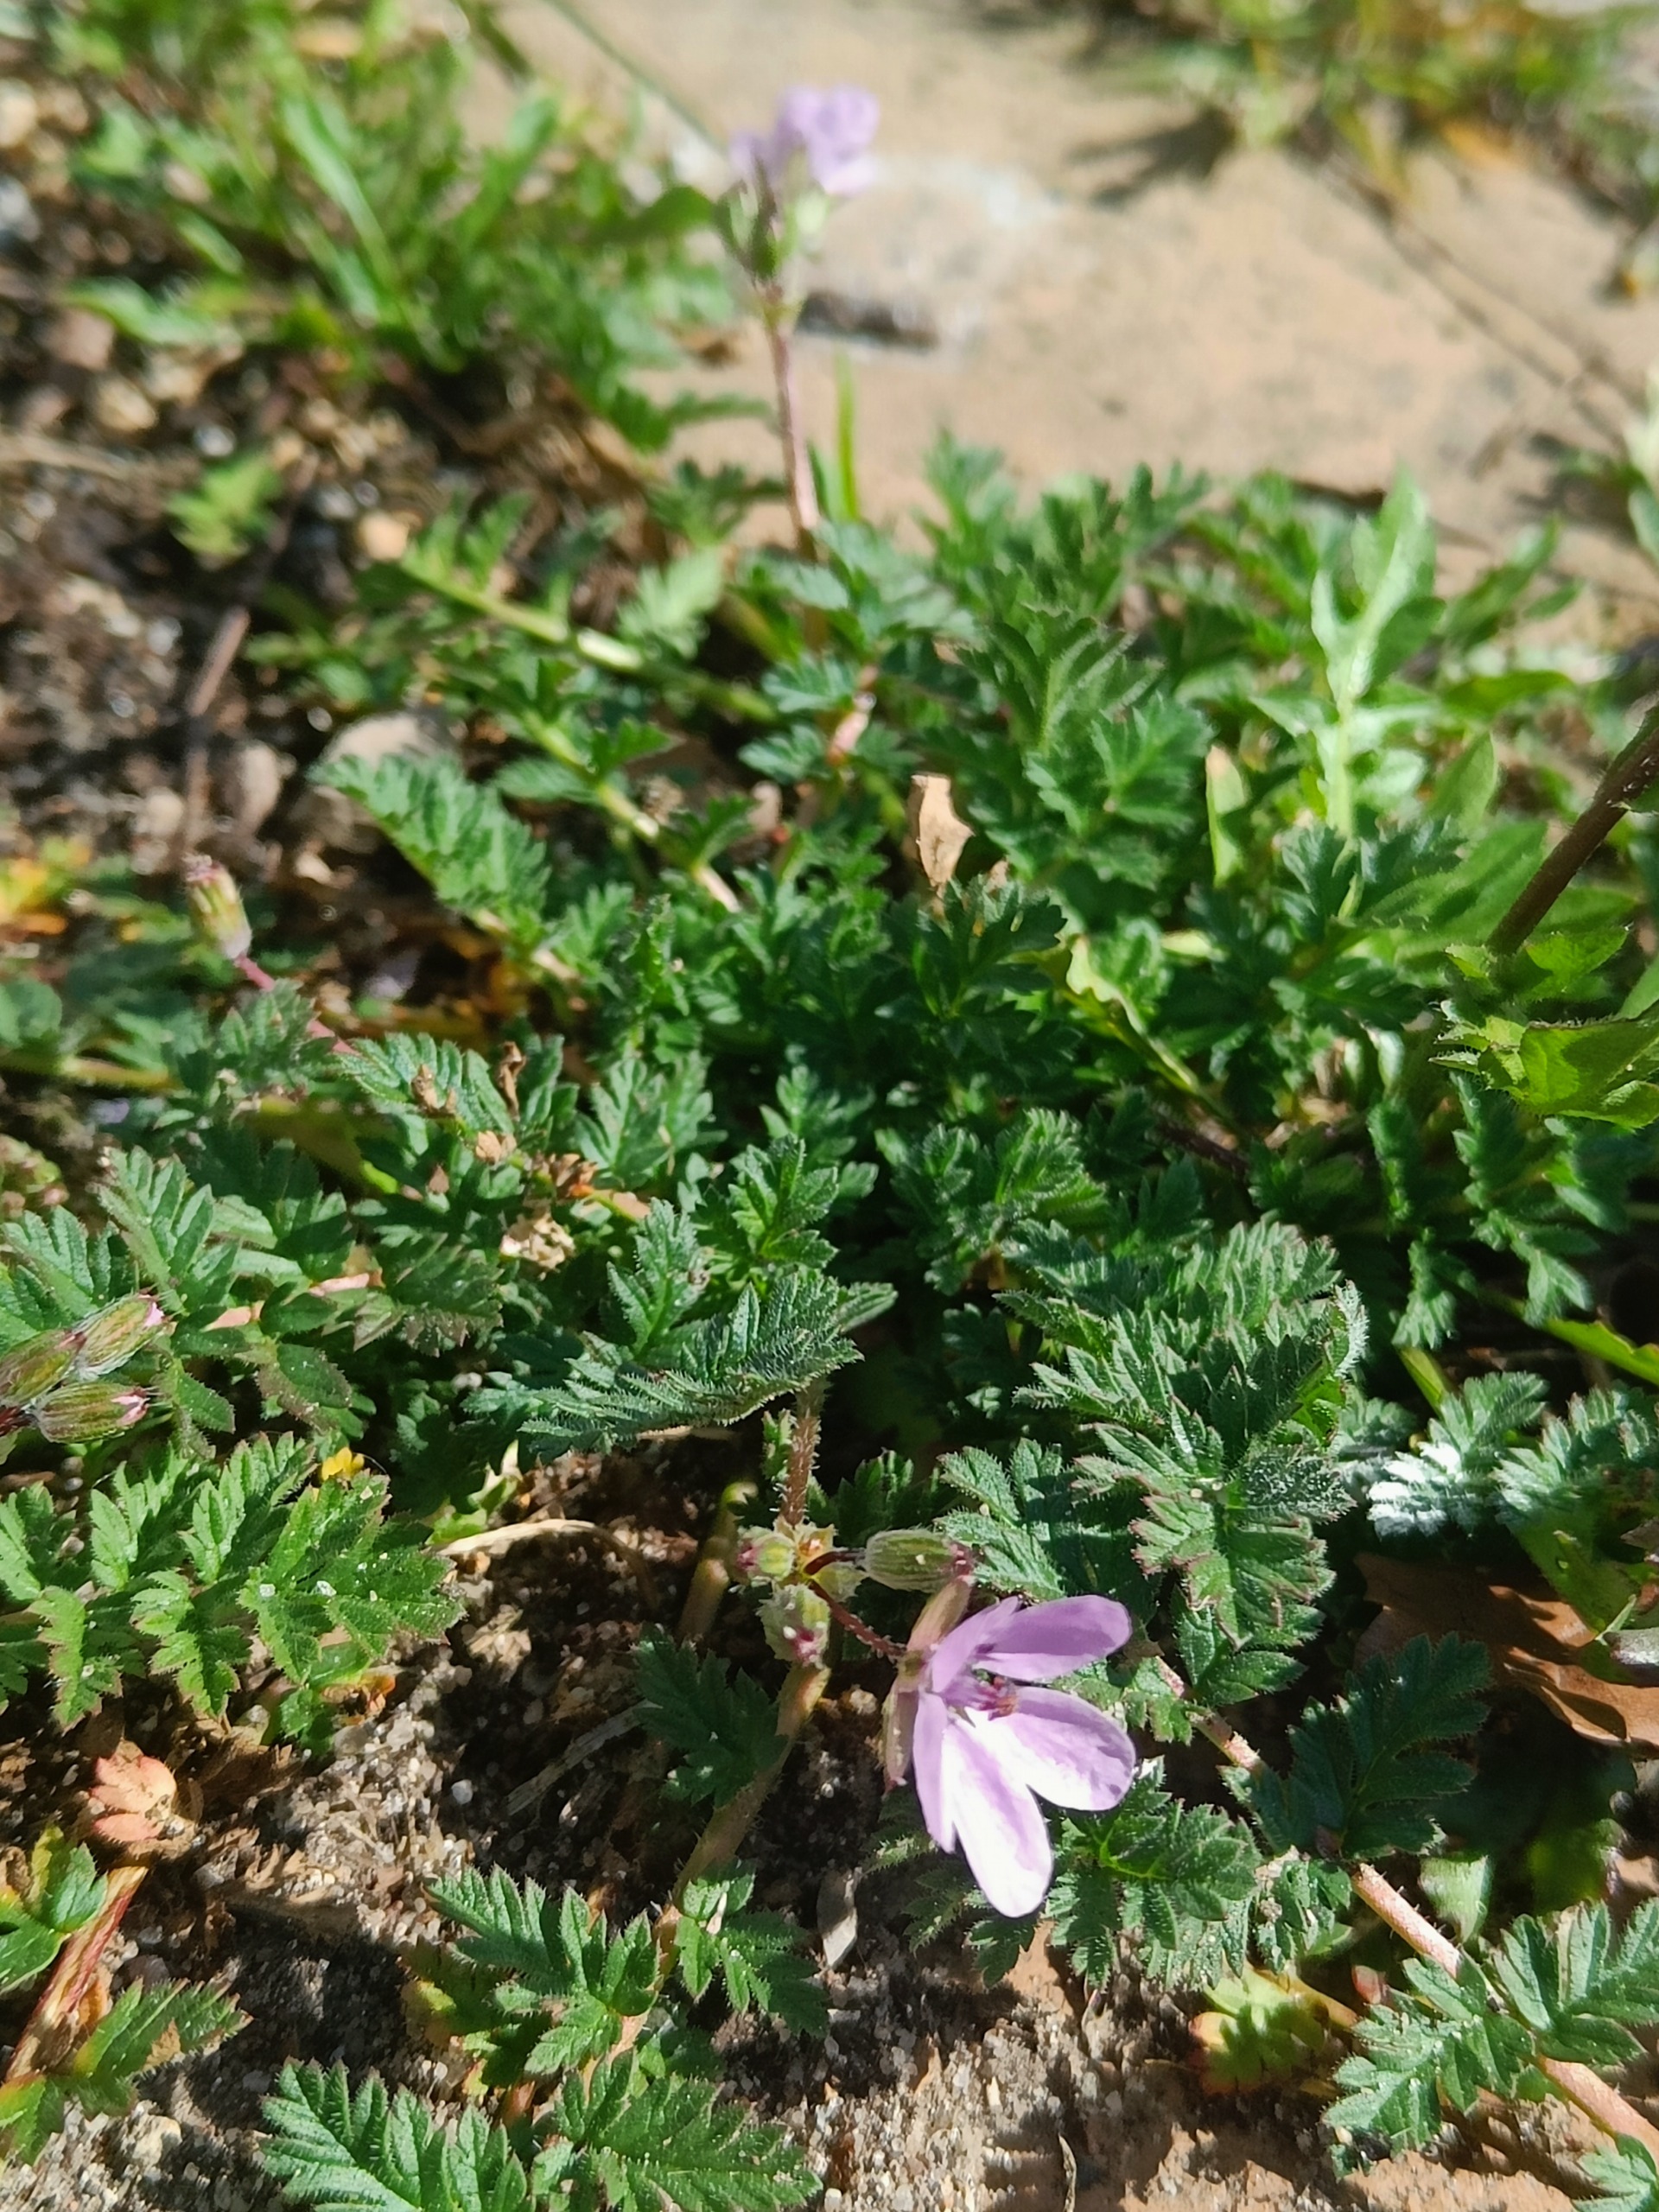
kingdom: Plantae
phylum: Tracheophyta
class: Magnoliopsida
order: Geraniales
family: Geraniaceae
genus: Erodium
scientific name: Erodium cicutarium
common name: Hejrenæb
